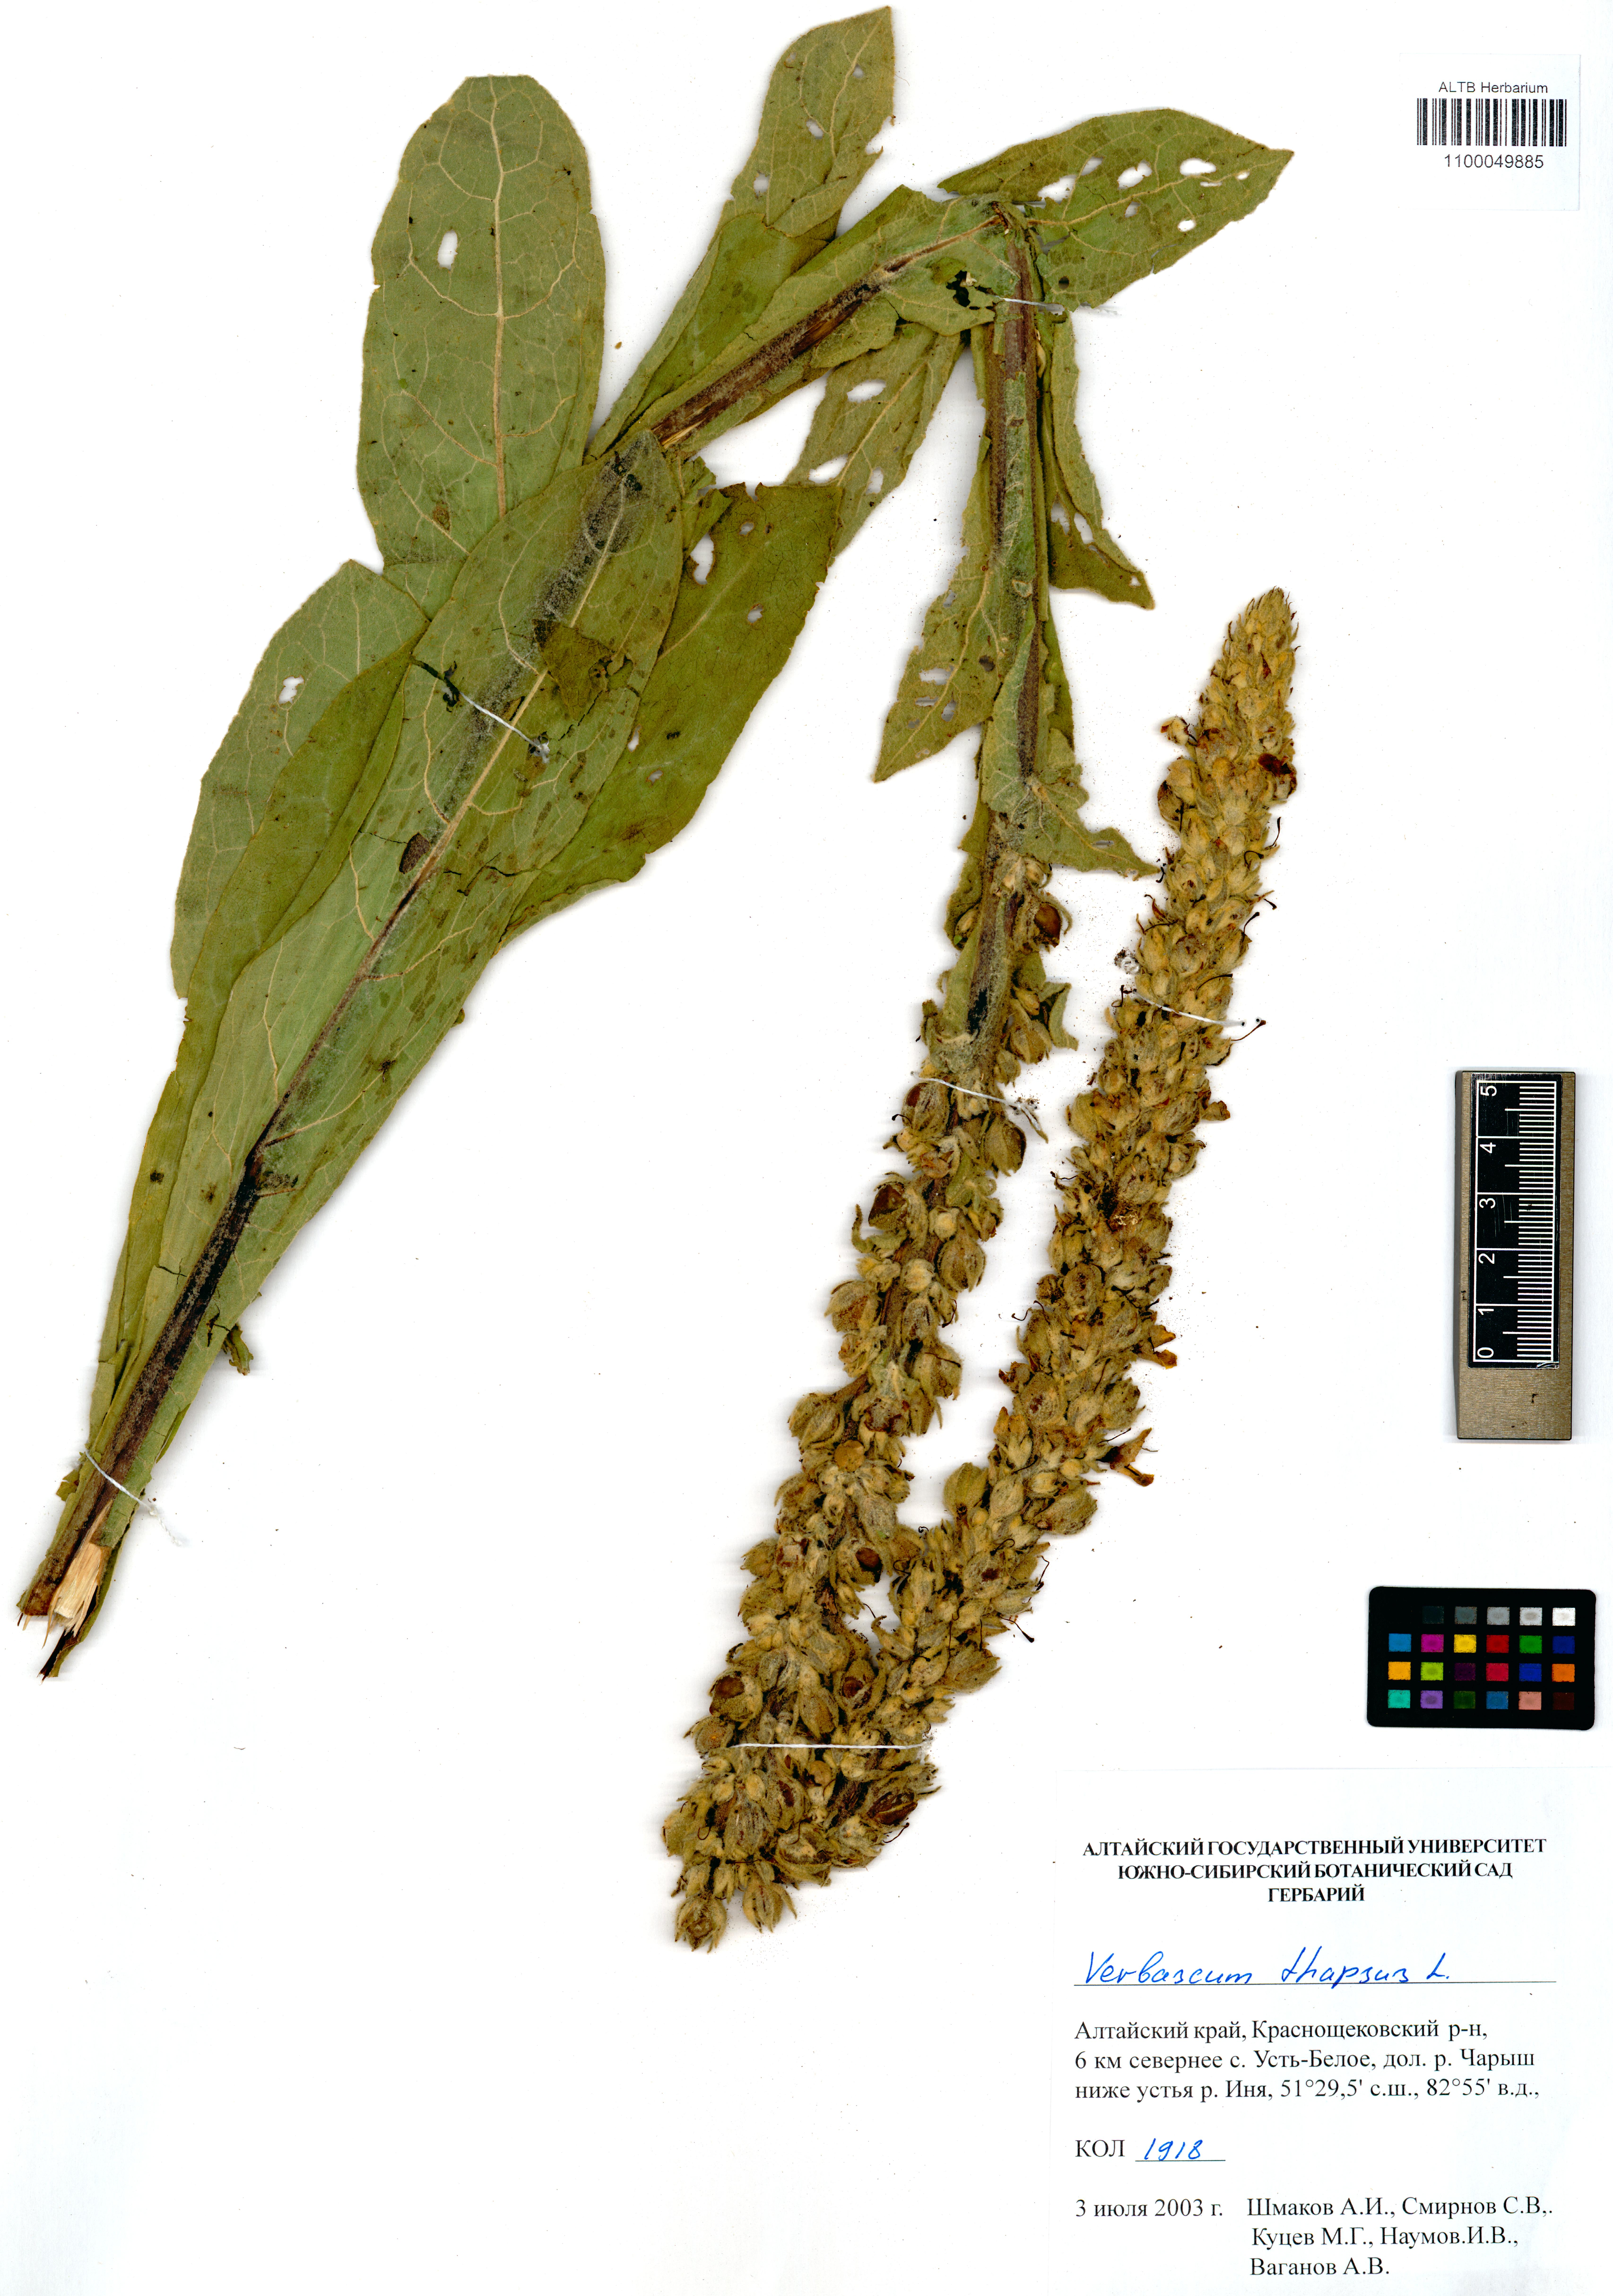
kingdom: Plantae
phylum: Tracheophyta
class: Magnoliopsida
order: Lamiales
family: Scrophulariaceae
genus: Verbascum
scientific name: Verbascum thapsus
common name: Common mullein
